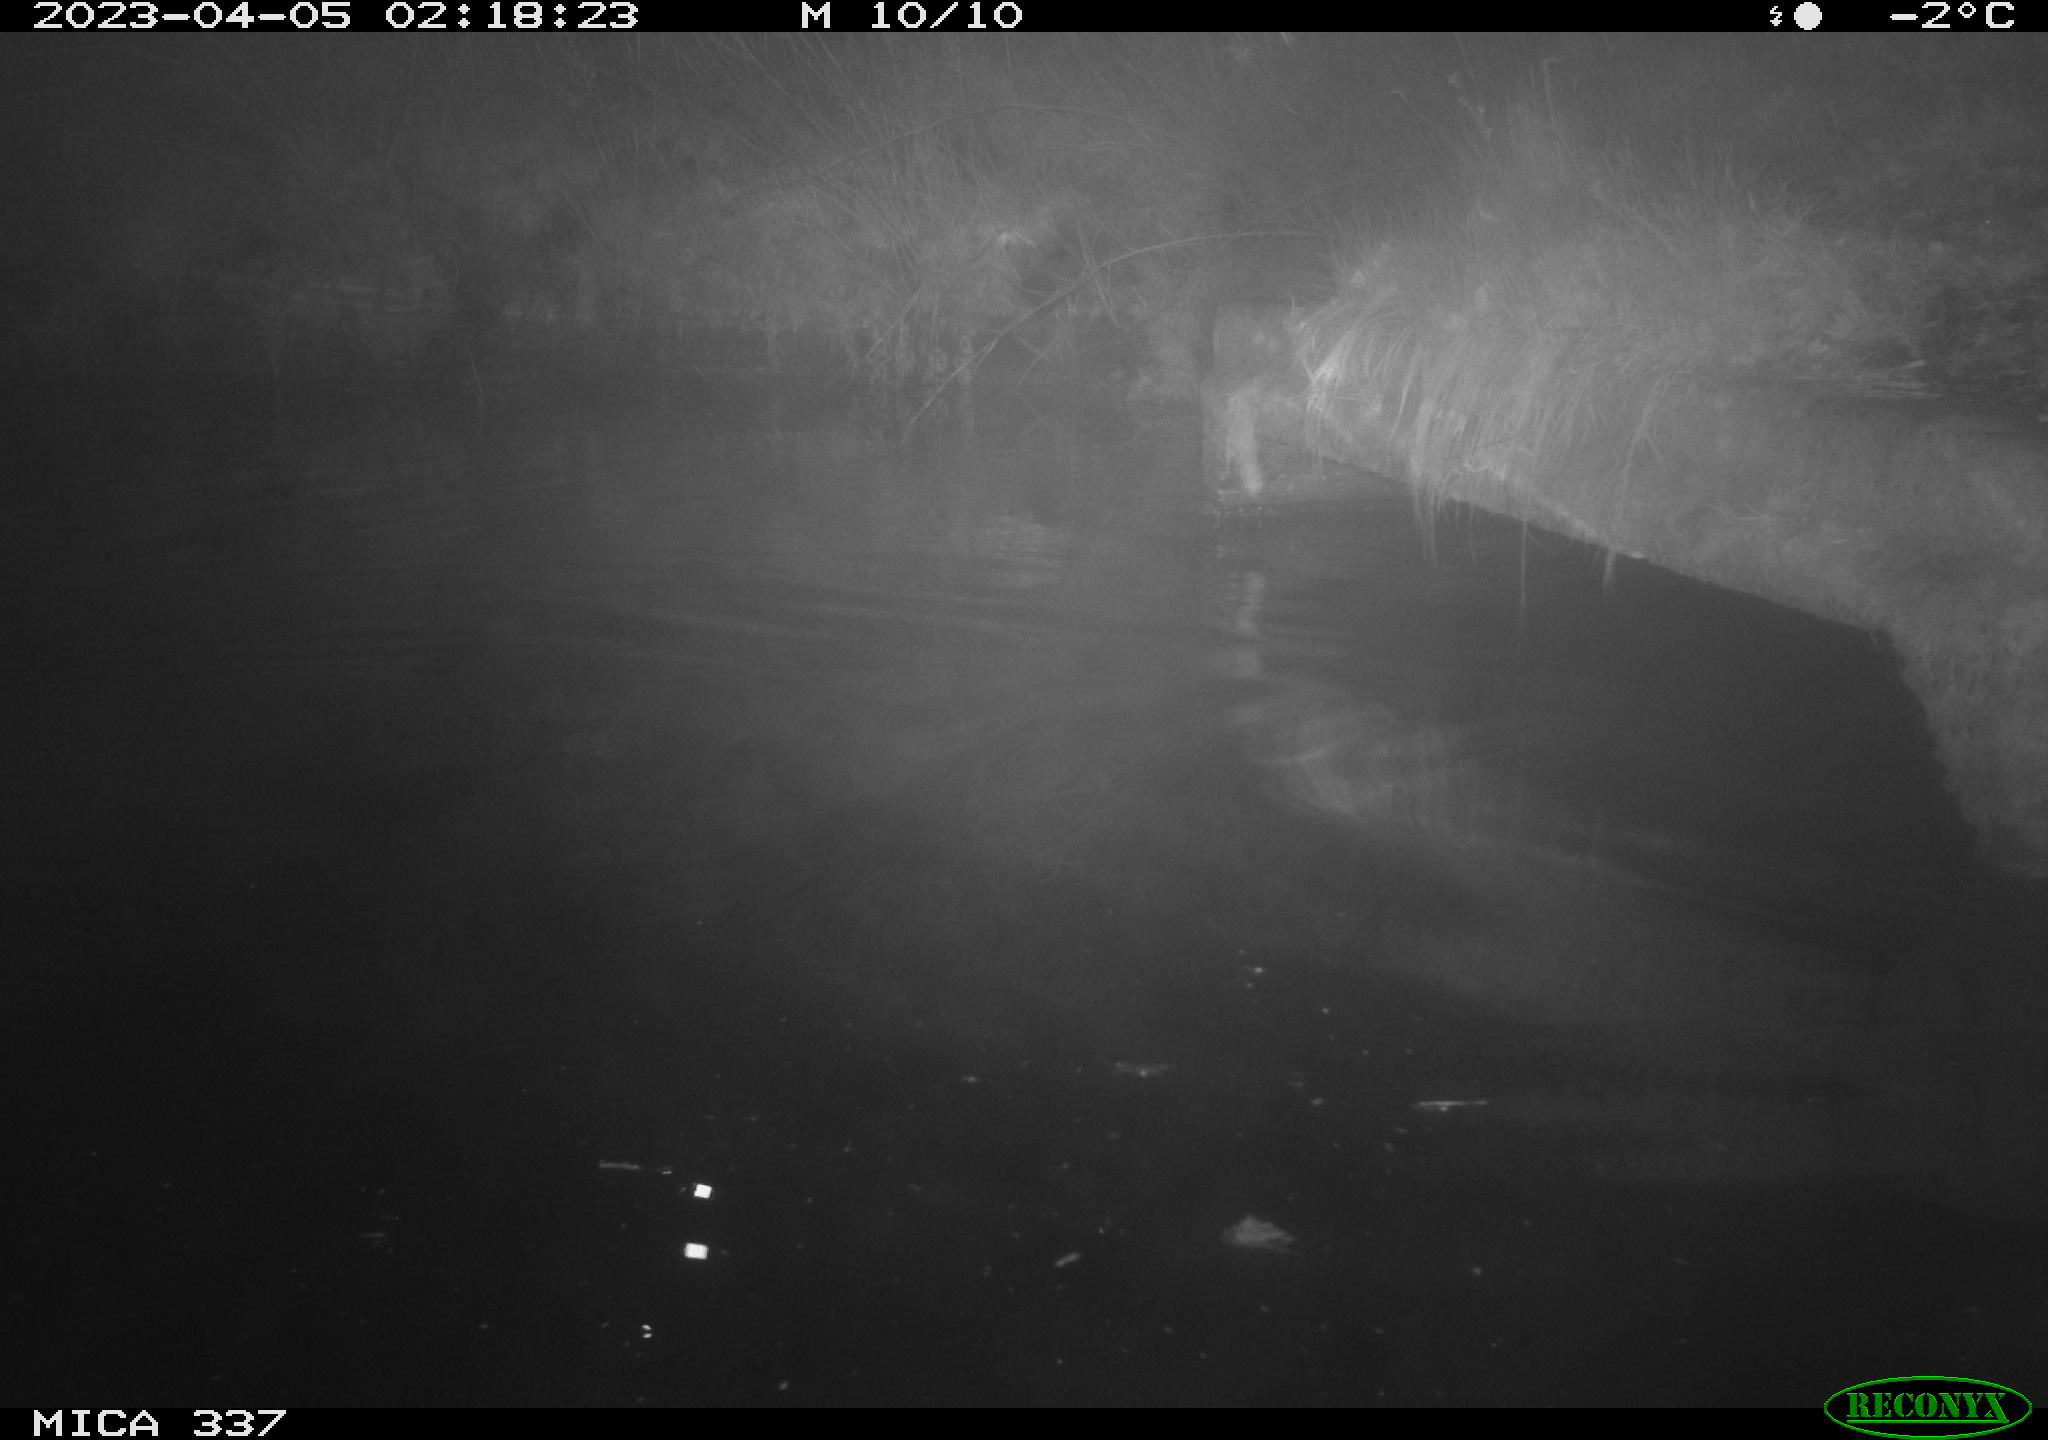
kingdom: Animalia
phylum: Chordata
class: Aves
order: Anseriformes
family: Anatidae
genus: Anas
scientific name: Anas
